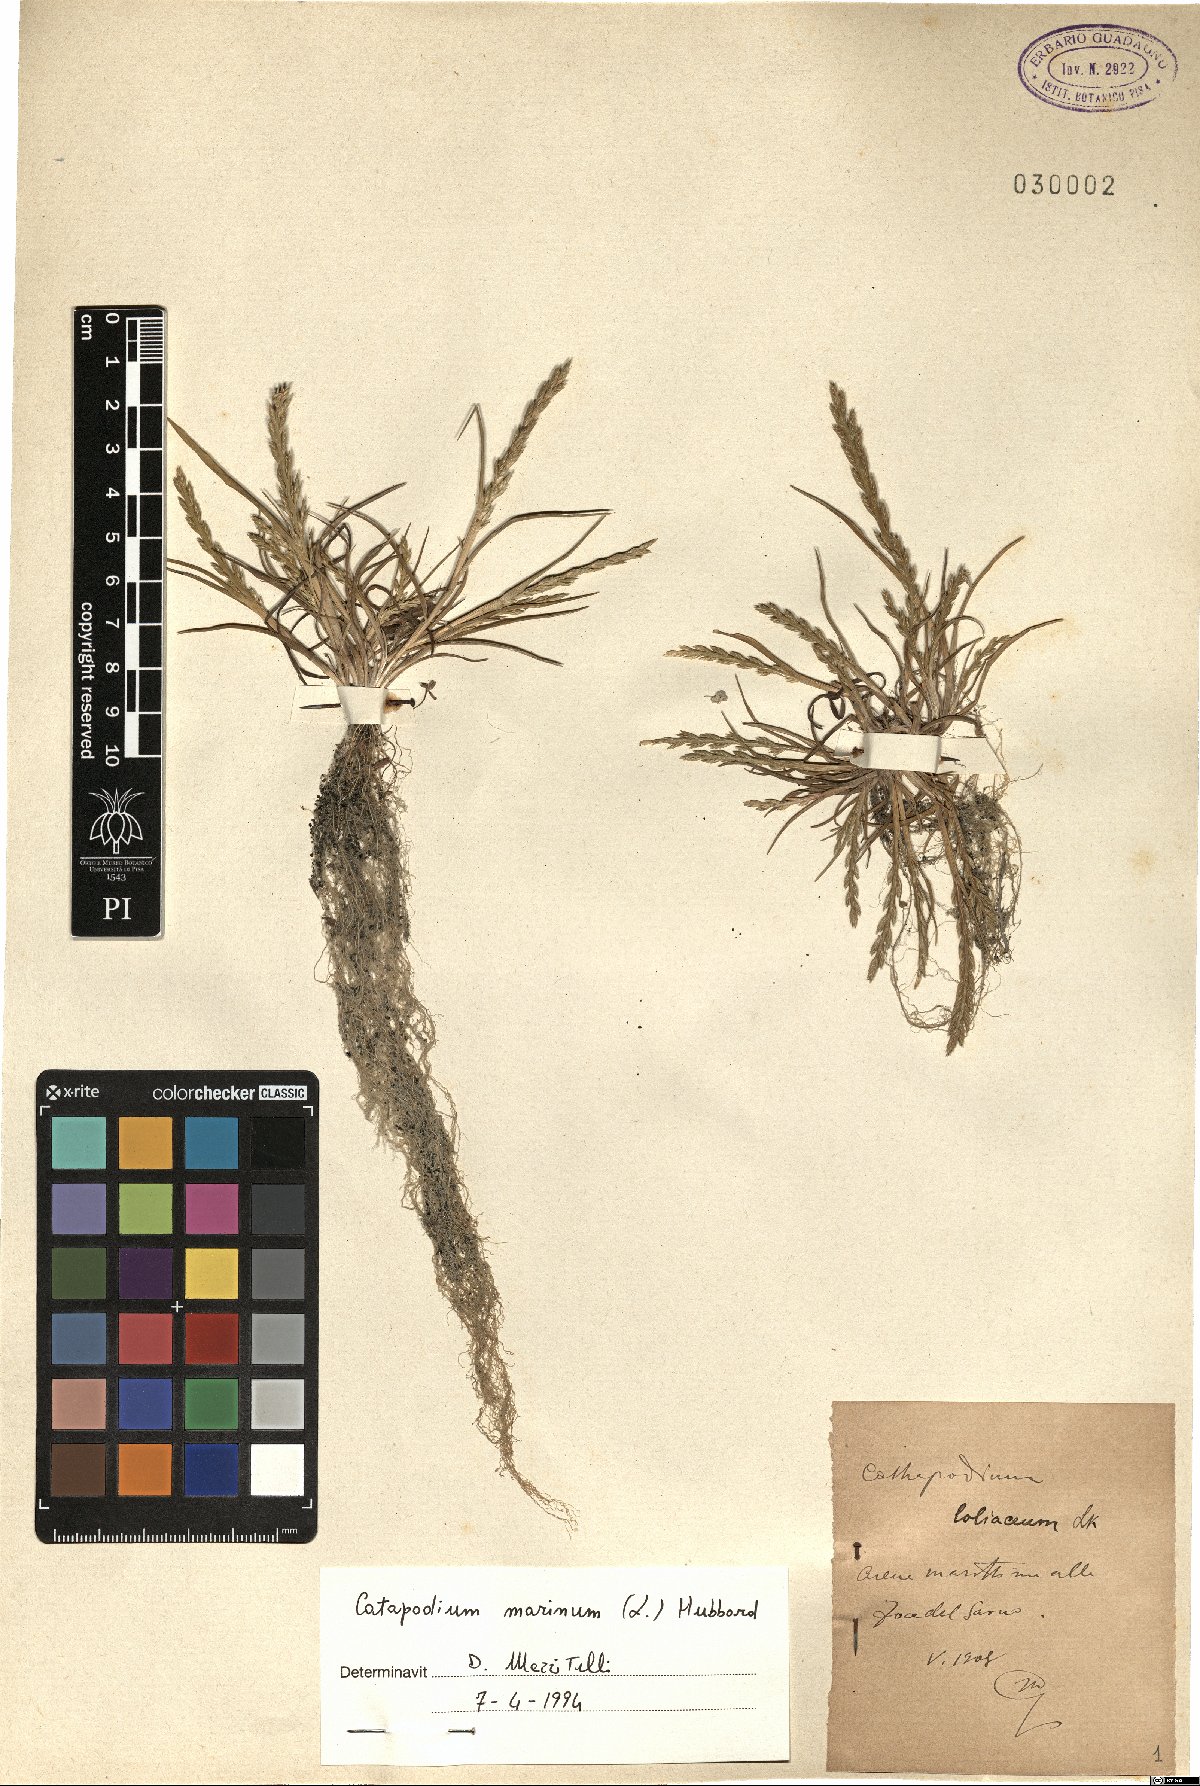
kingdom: Plantae
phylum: Tracheophyta
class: Liliopsida
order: Poales
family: Poaceae
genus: Catapodium
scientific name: Catapodium marinum
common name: Sea fern-grass
